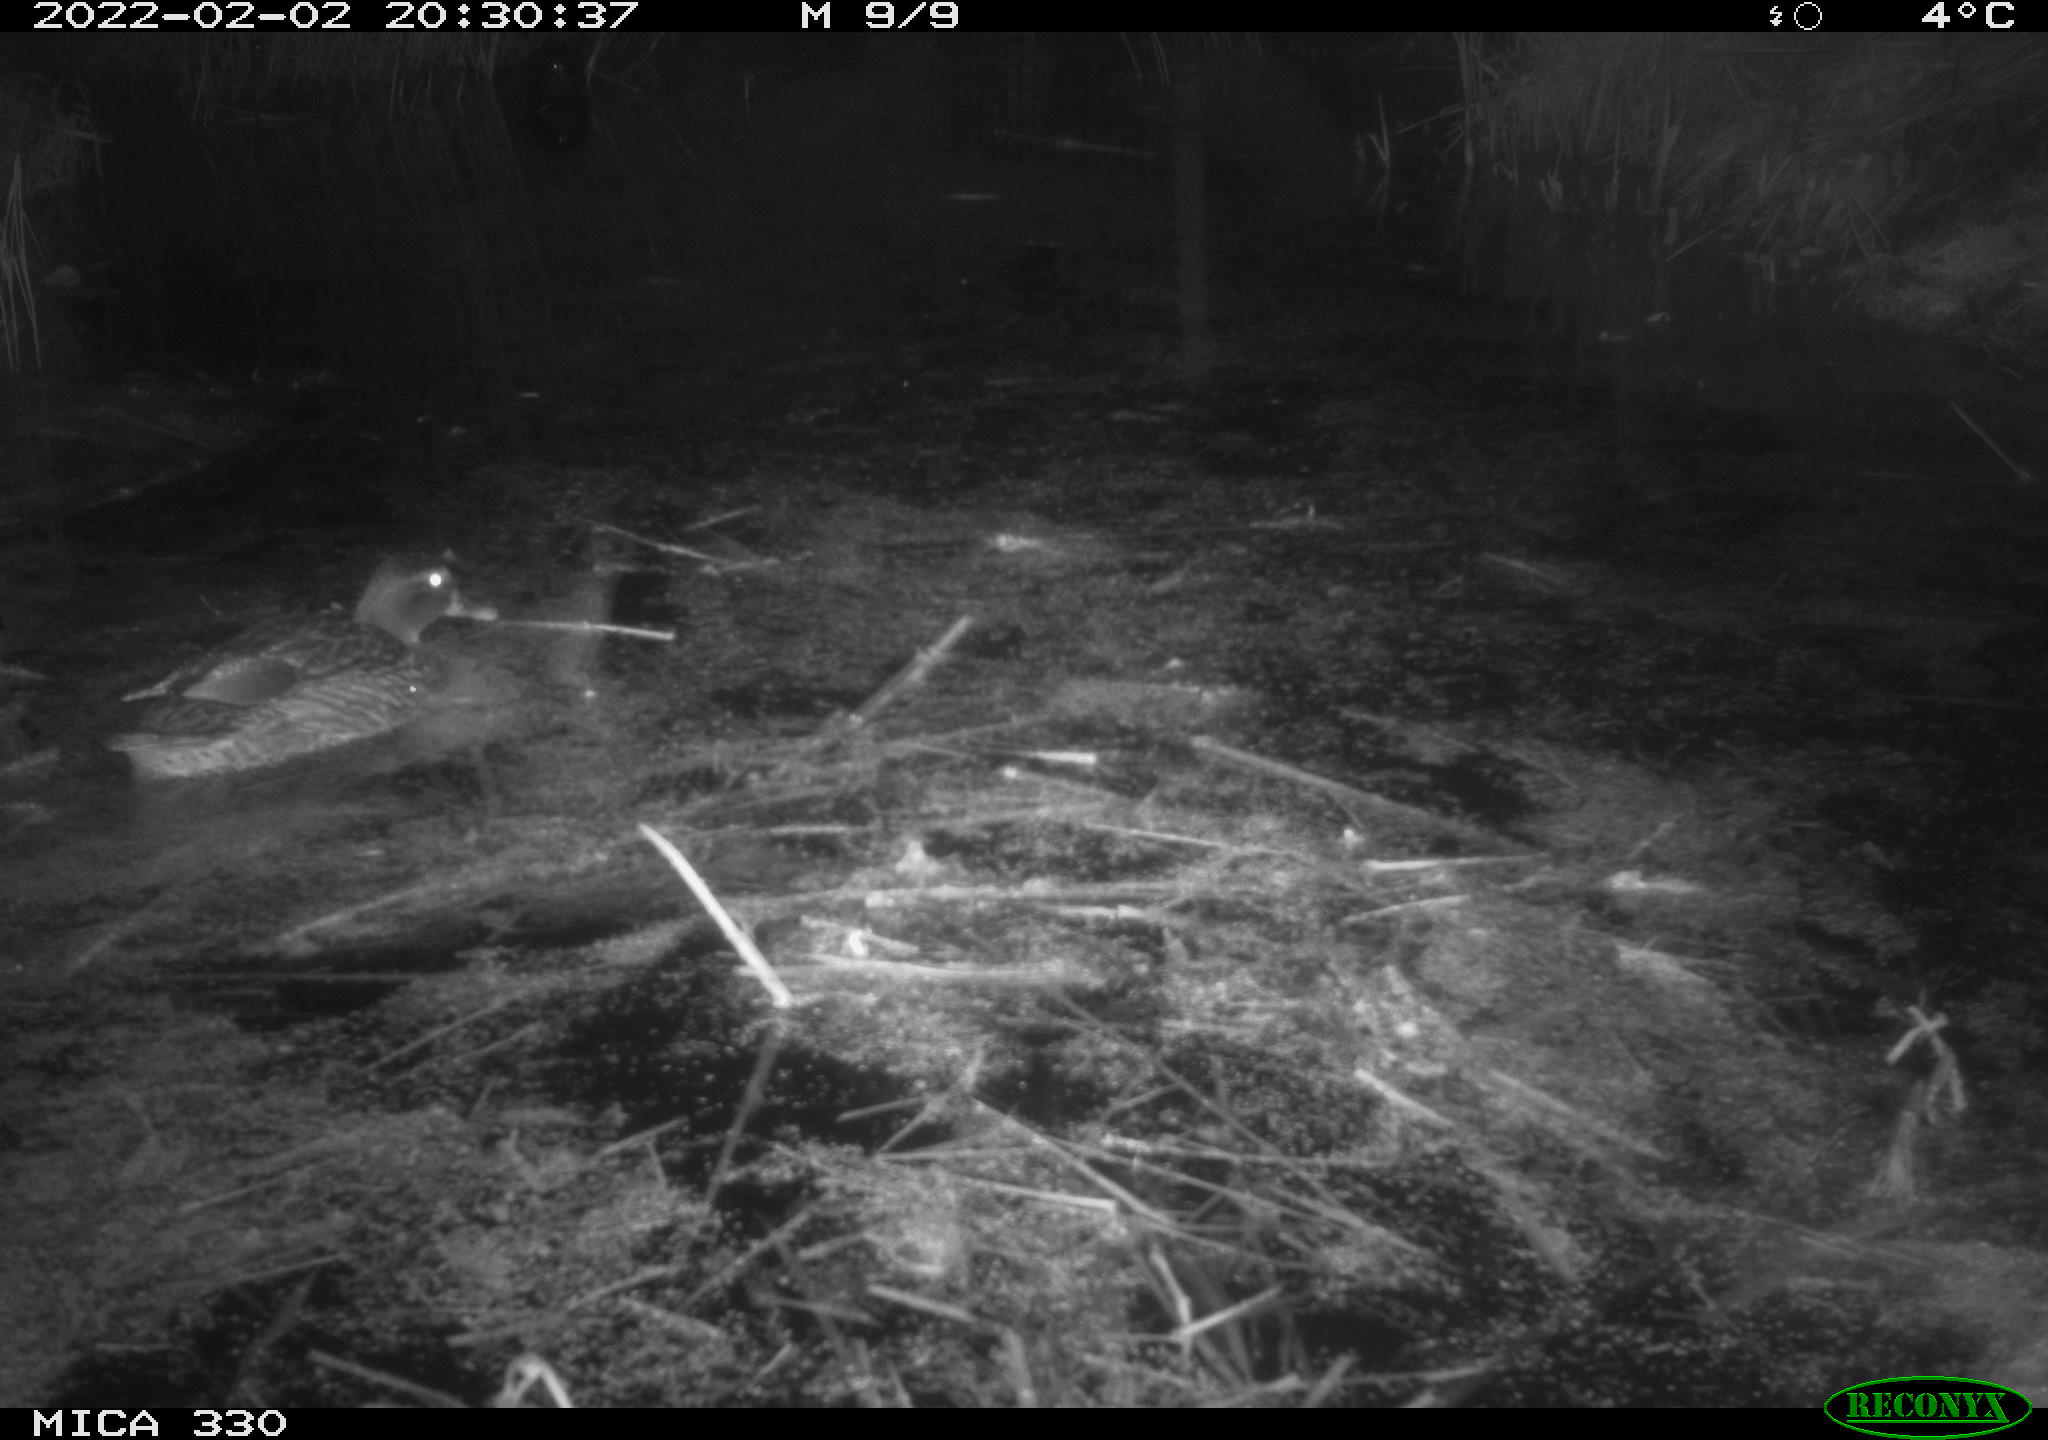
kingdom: Animalia
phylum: Chordata
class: Aves
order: Anseriformes
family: Anatidae
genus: Anas
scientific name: Anas platyrhynchos
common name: Mallard
